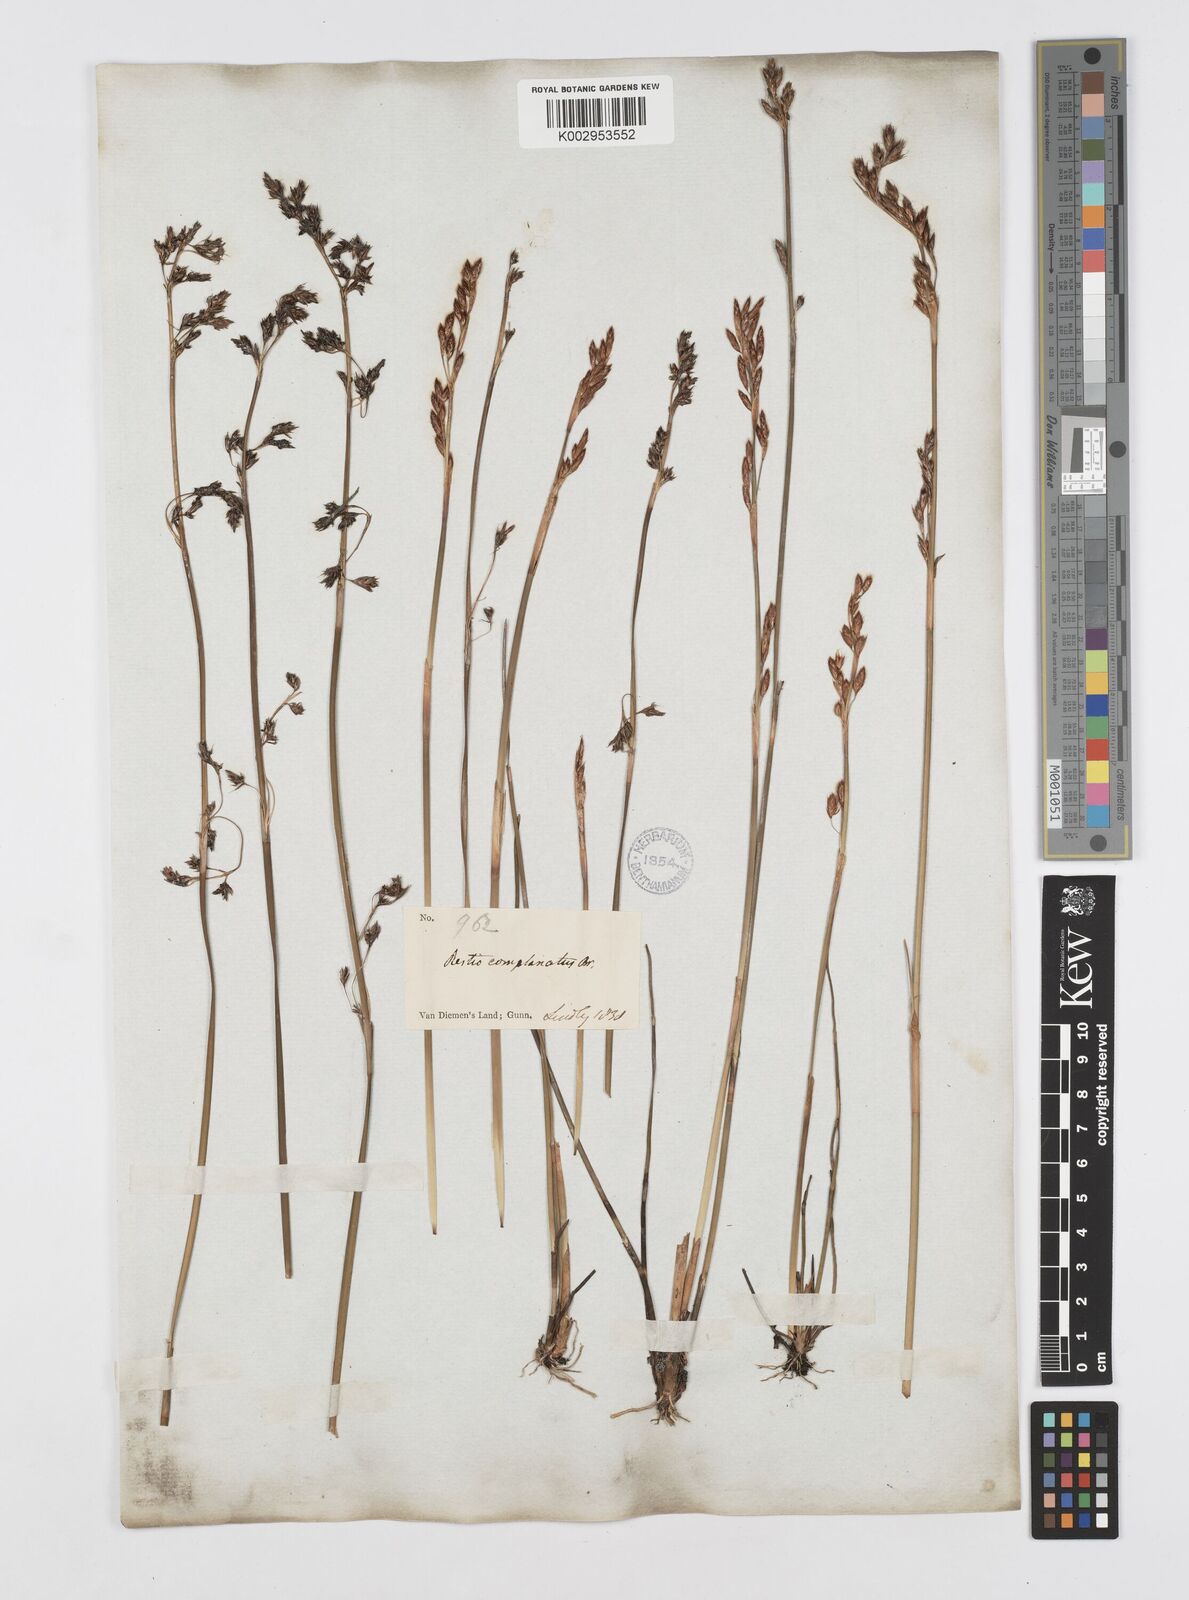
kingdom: Plantae
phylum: Tracheophyta
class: Liliopsida
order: Poales
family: Restionaceae
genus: Eurychorda
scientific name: Eurychorda complanata
